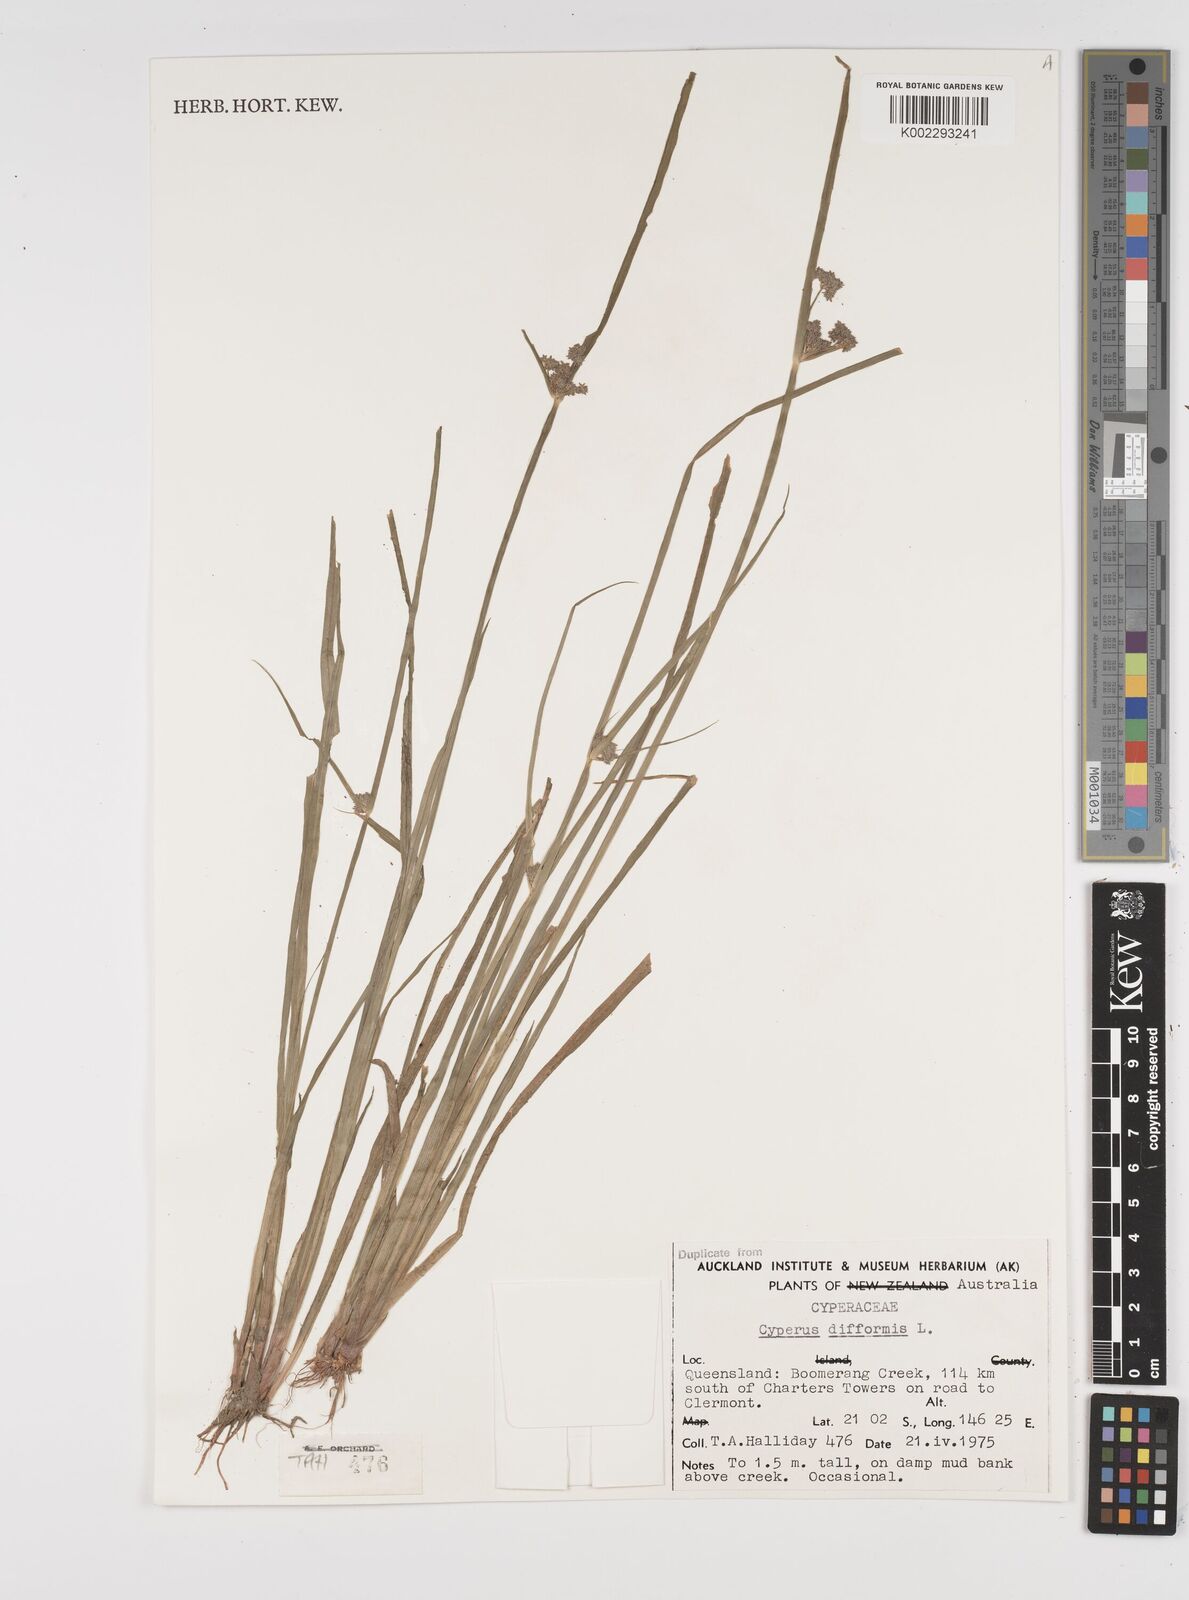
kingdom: Plantae
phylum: Tracheophyta
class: Liliopsida
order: Poales
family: Cyperaceae
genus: Cyperus
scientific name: Cyperus difformis
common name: Variable flatsedge
